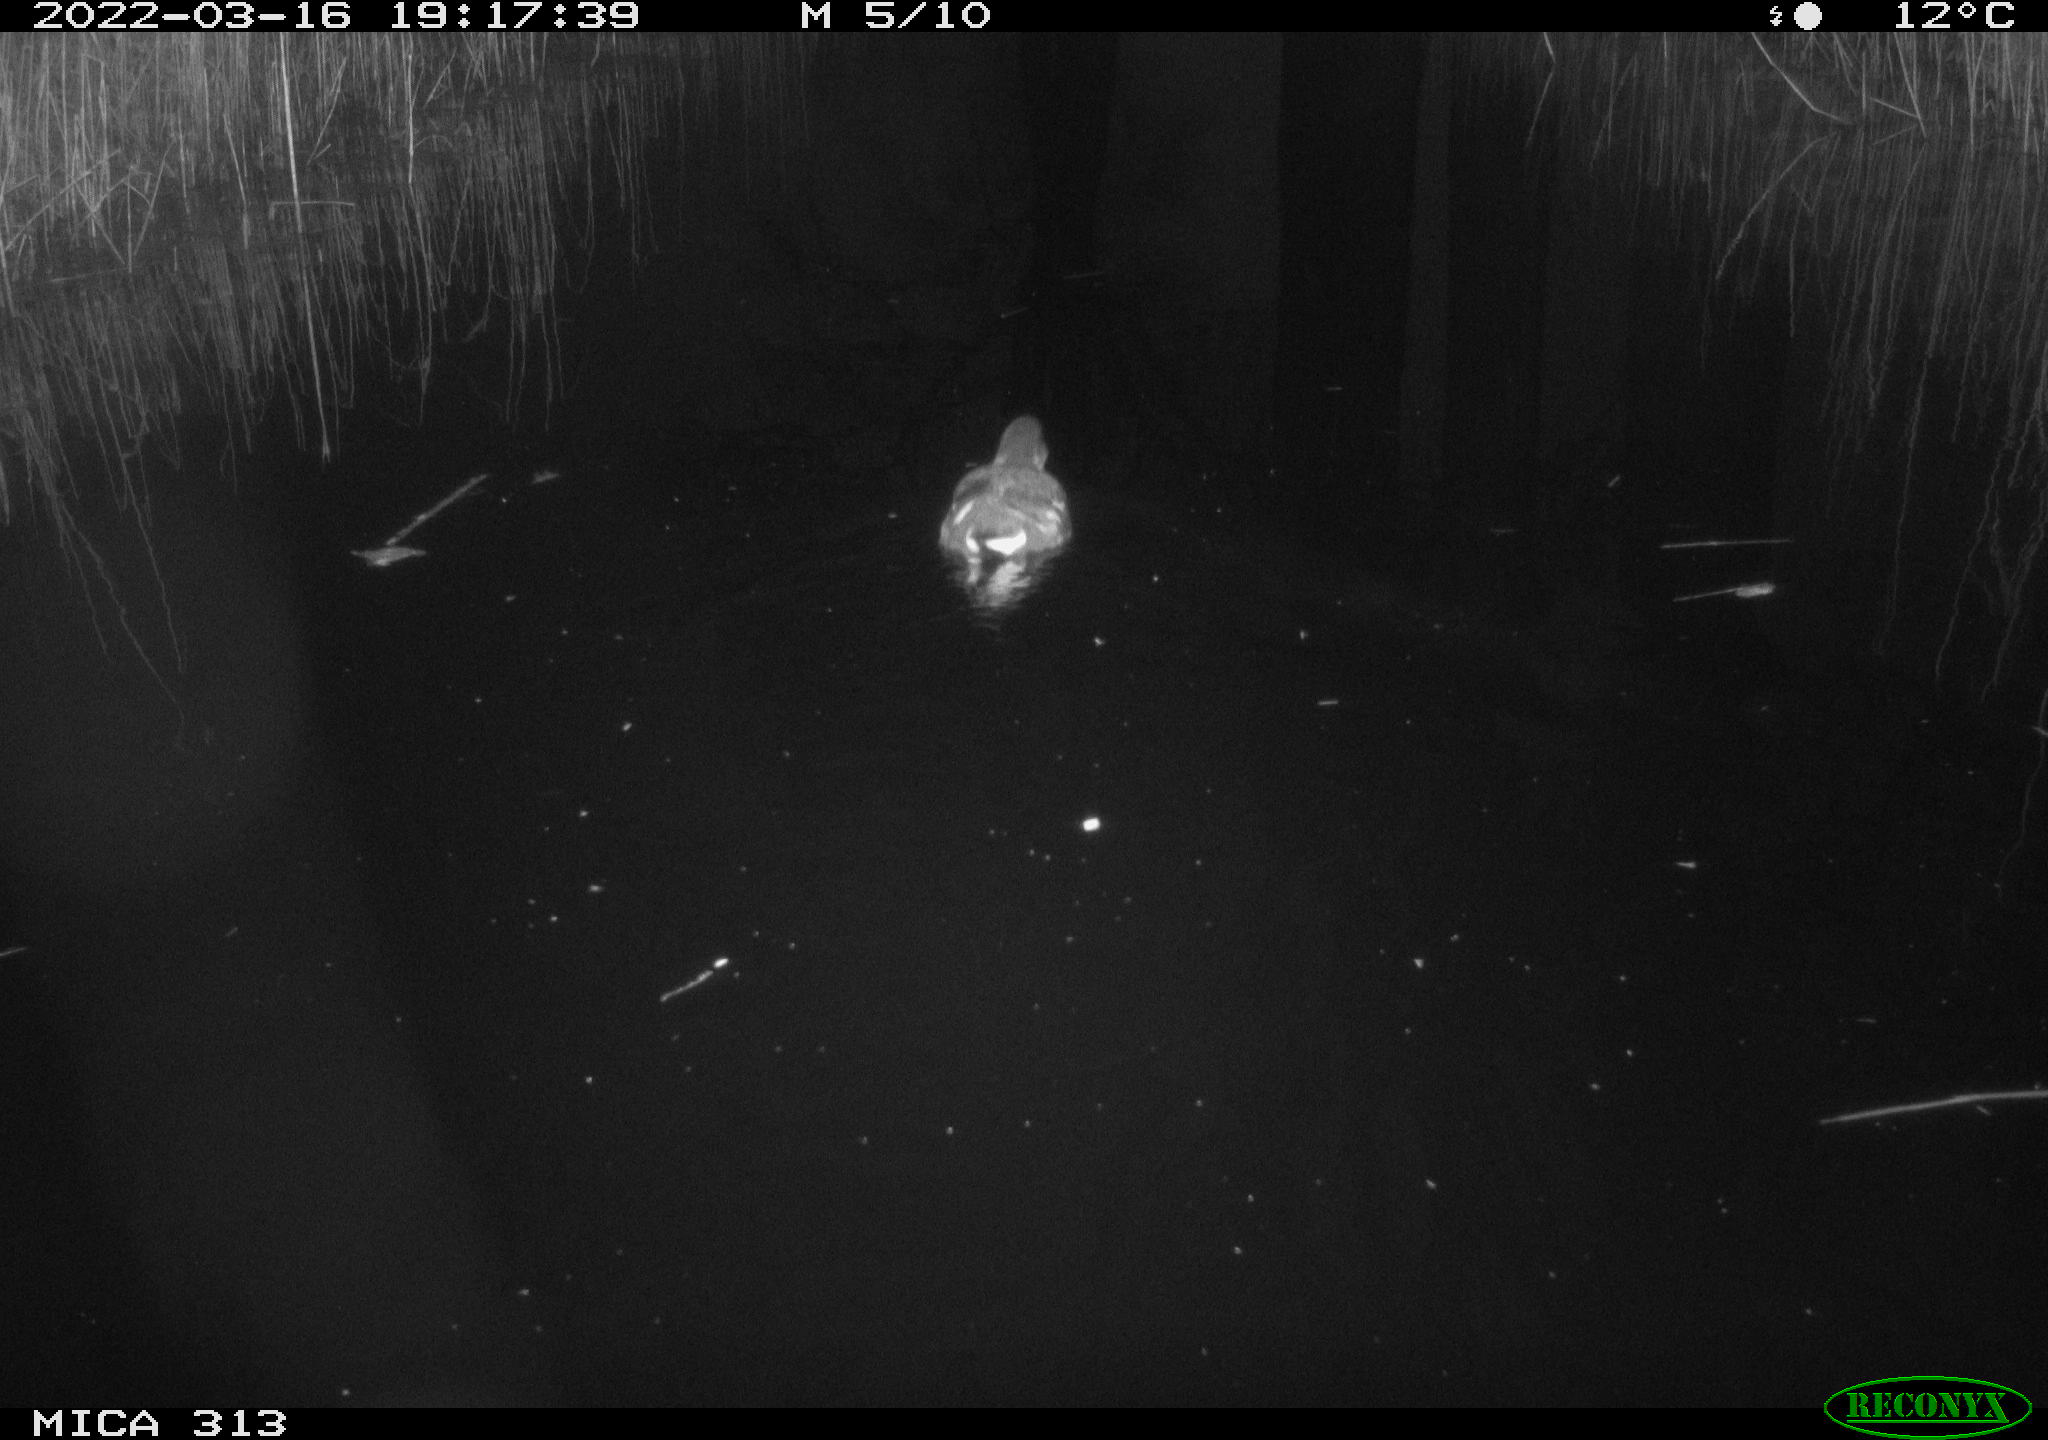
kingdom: Animalia
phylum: Chordata
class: Aves
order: Gruiformes
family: Rallidae
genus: Gallinula
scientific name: Gallinula chloropus
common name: Common moorhen
